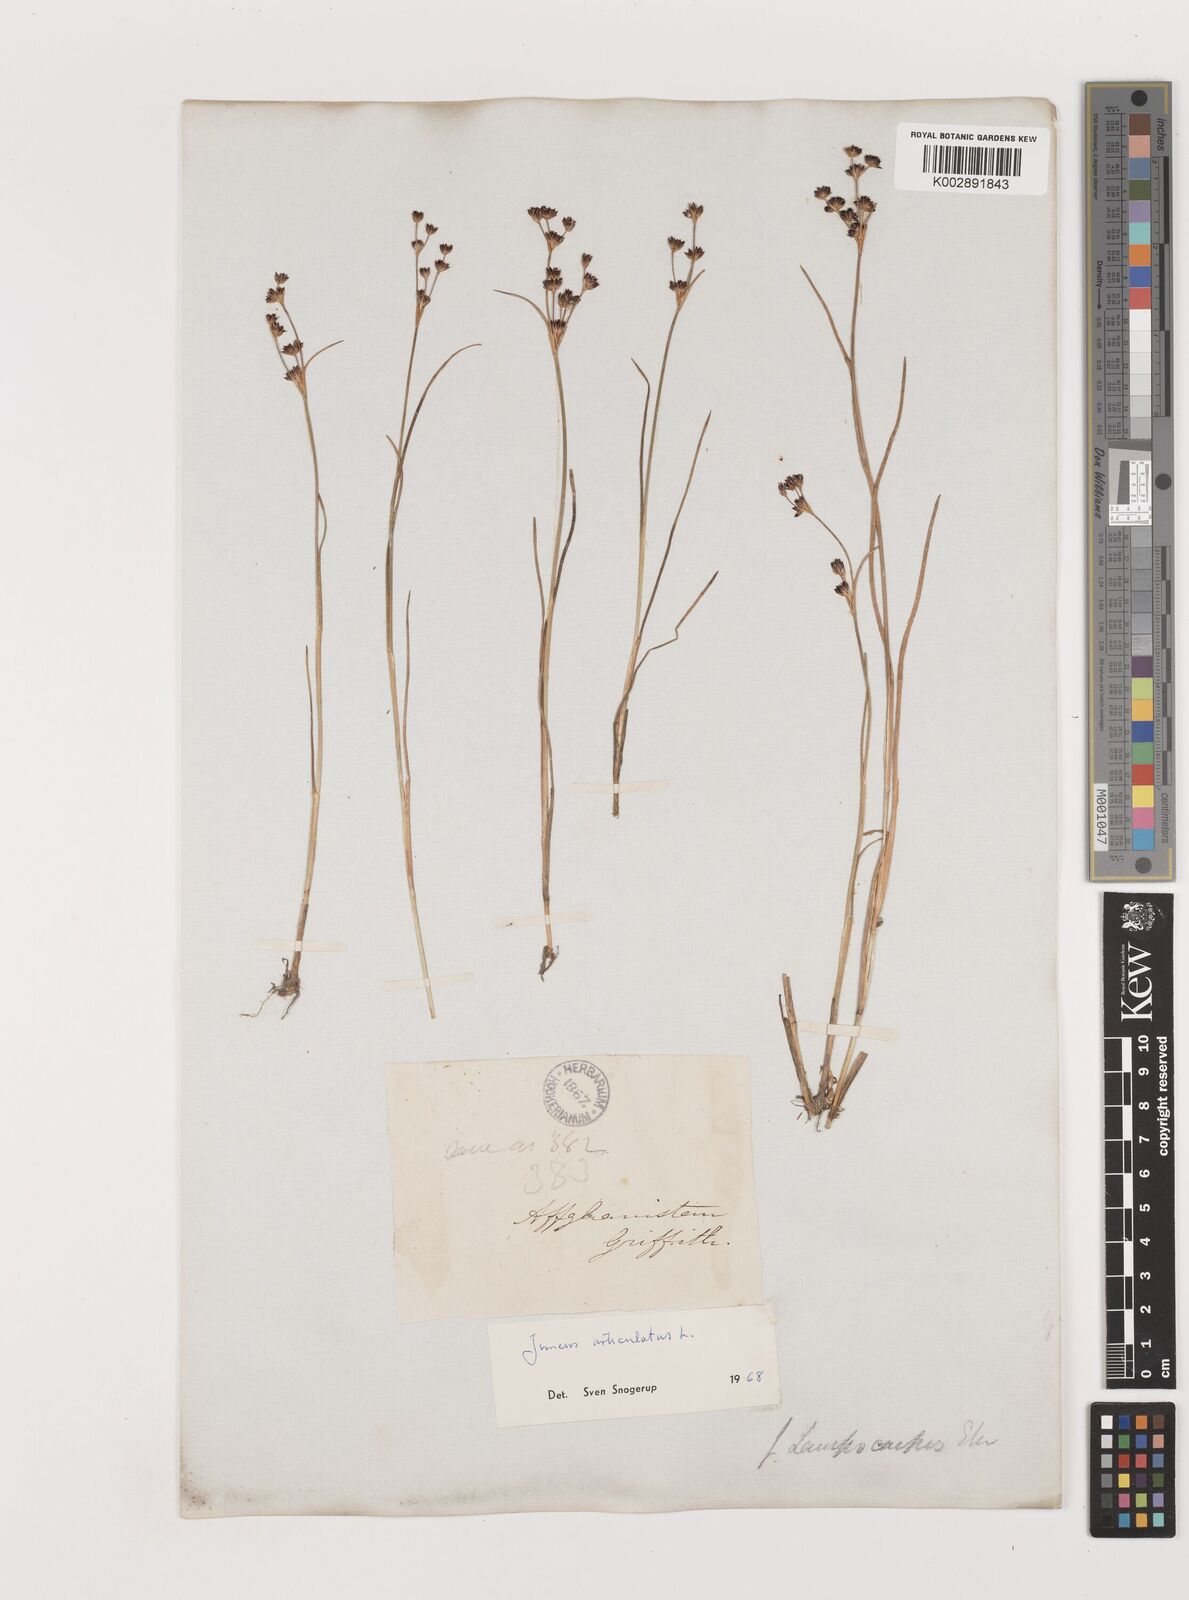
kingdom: Plantae
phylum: Tracheophyta
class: Liliopsida
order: Poales
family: Juncaceae
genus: Juncus
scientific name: Juncus articulatus
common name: Jointed rush
